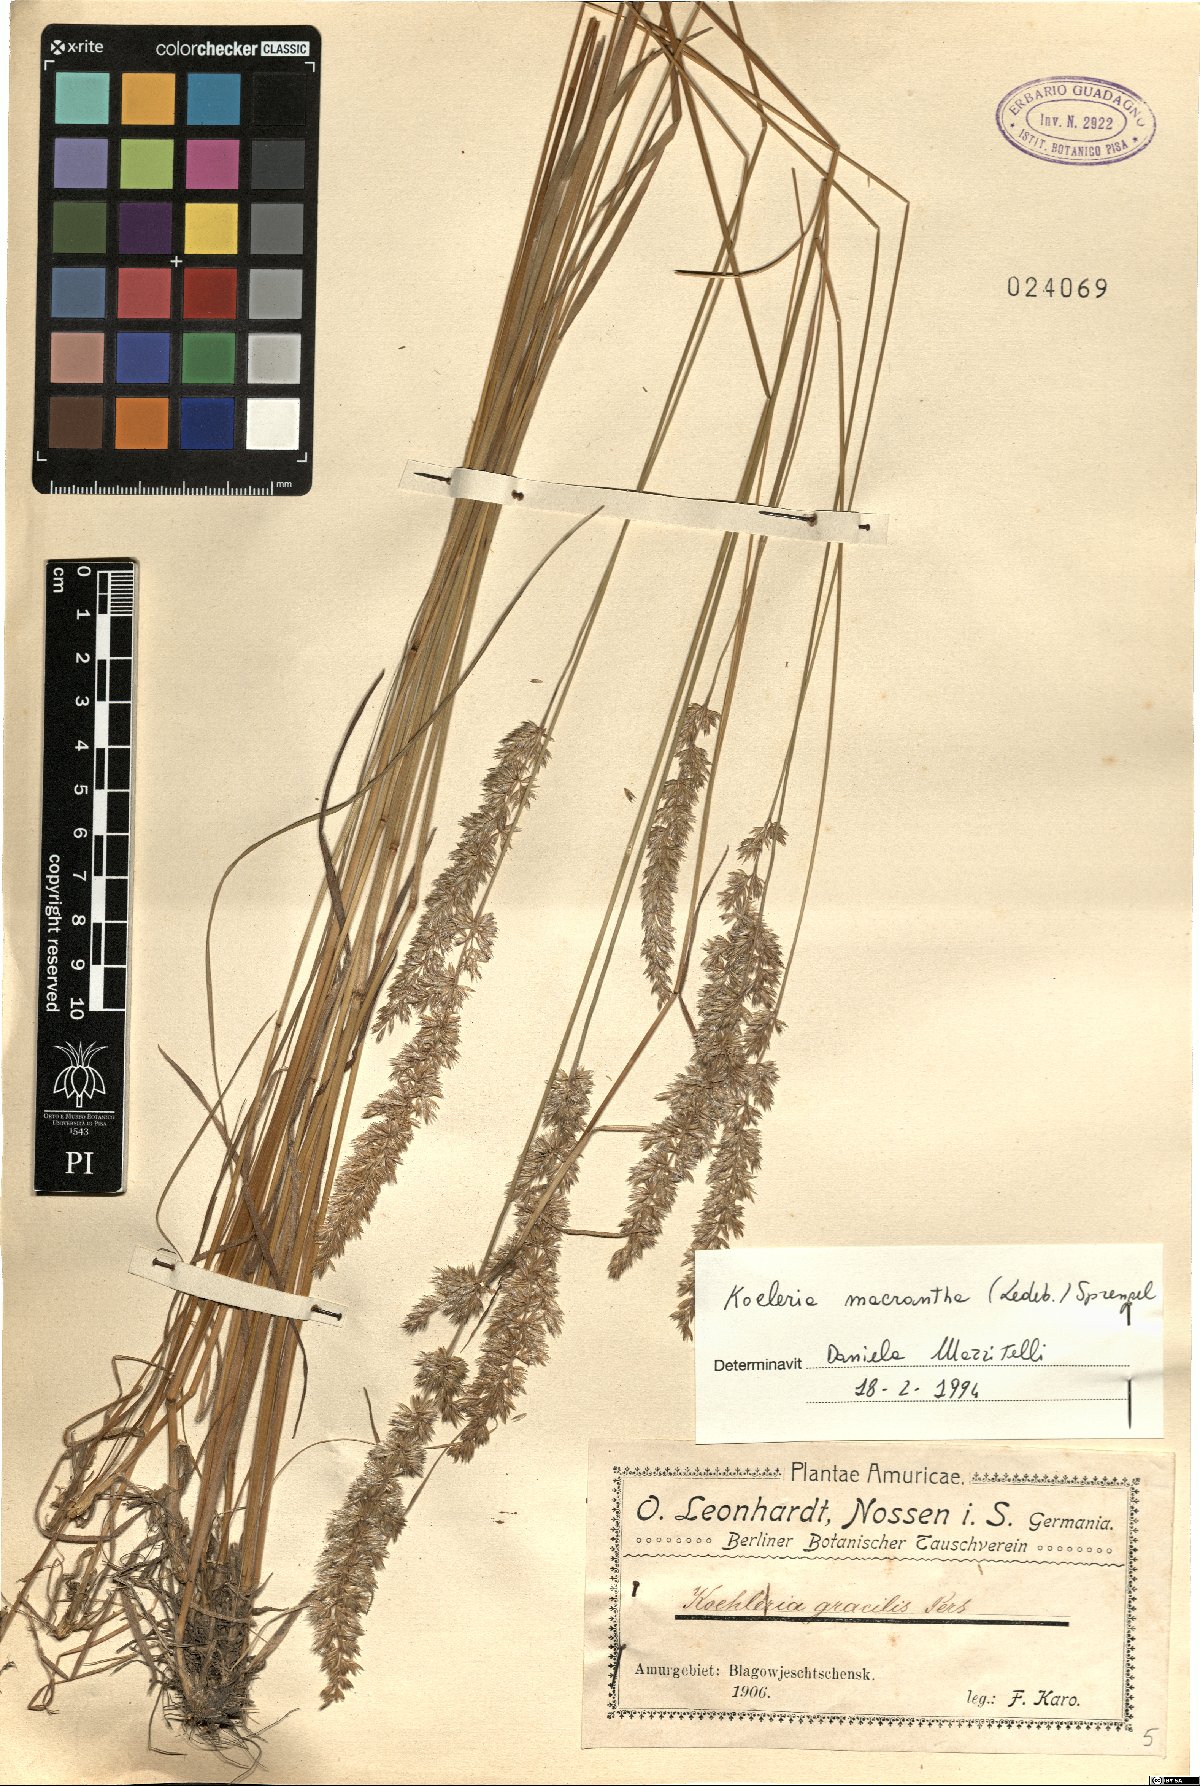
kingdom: Plantae
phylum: Tracheophyta
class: Liliopsida
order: Poales
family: Poaceae
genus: Koeleria
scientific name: Koeleria macrantha
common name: Crested hair-grass
